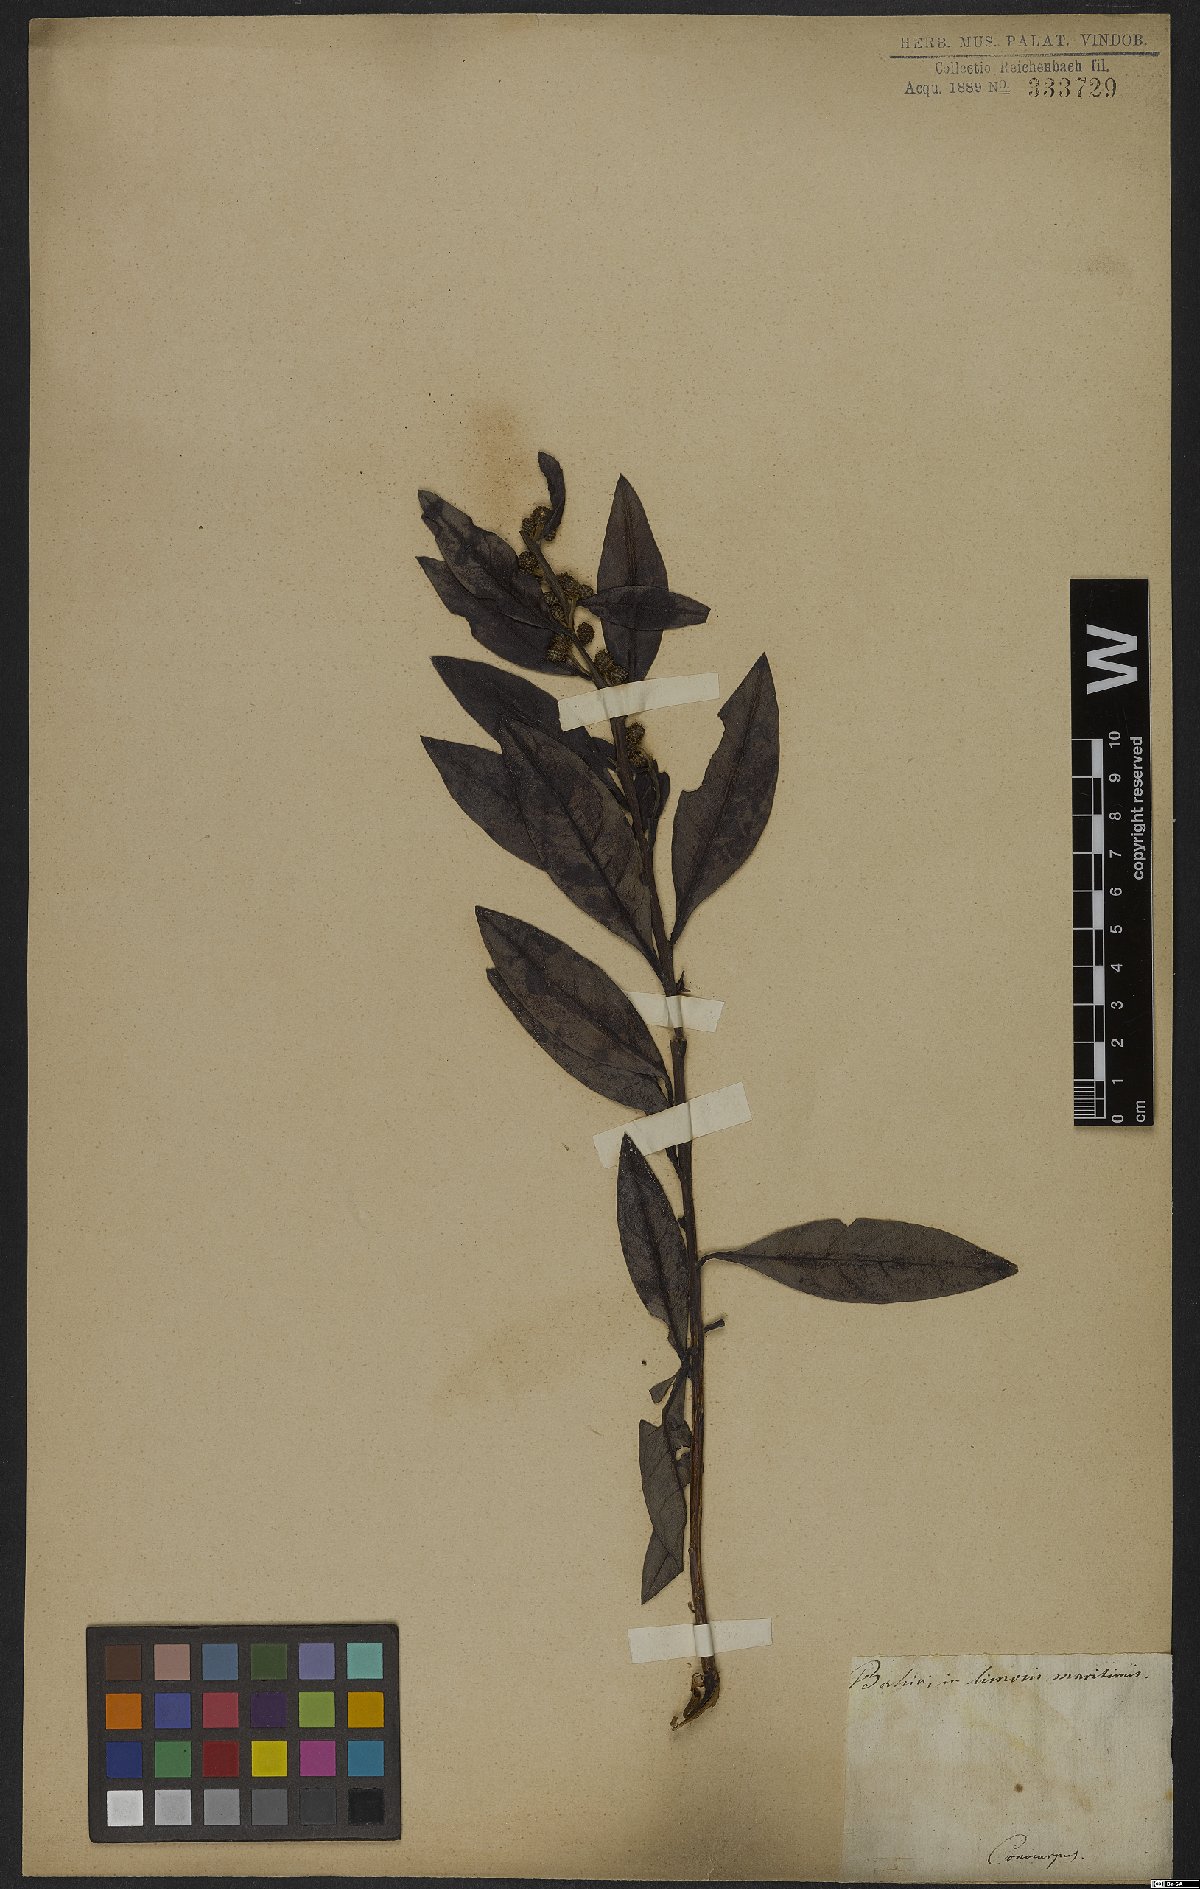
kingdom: Plantae
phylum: Tracheophyta
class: Magnoliopsida
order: Myrtales
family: Combretaceae
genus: Conocarpus
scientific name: Conocarpus
